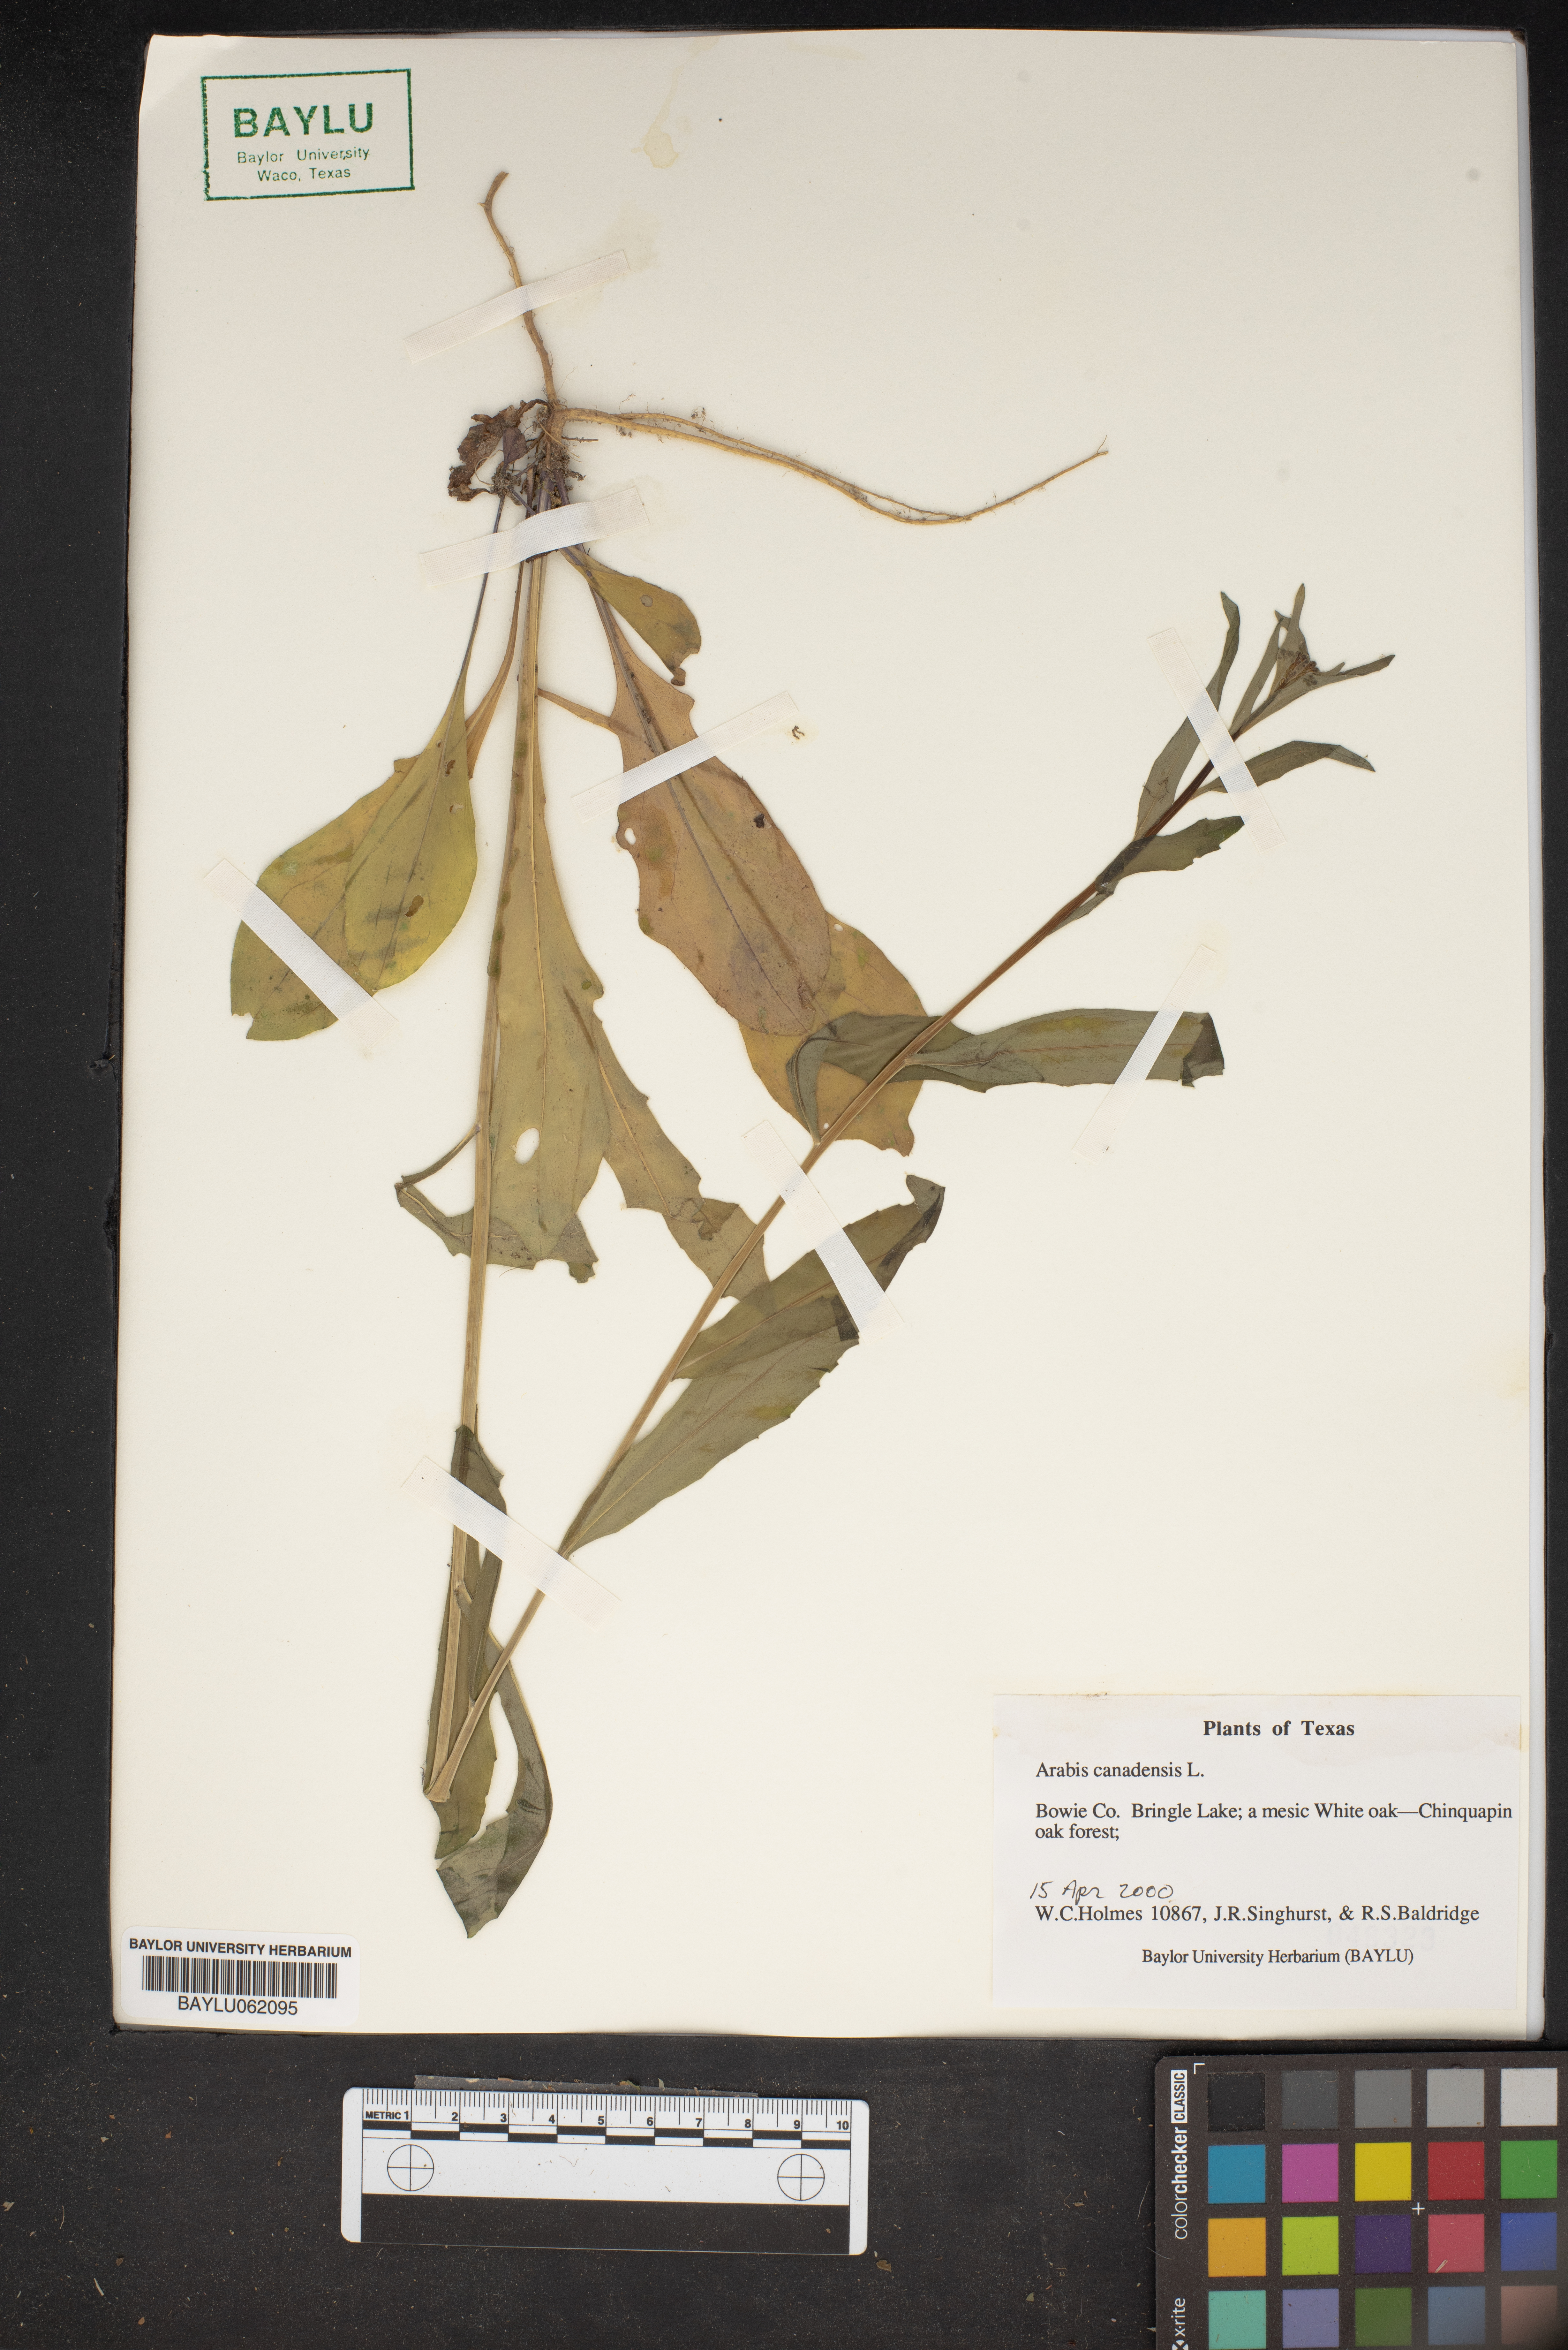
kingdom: Plantae
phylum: Tracheophyta
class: Magnoliopsida
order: Brassicales
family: Brassicaceae
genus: Borodinia
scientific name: Borodinia canadensis
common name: Sicklepod
